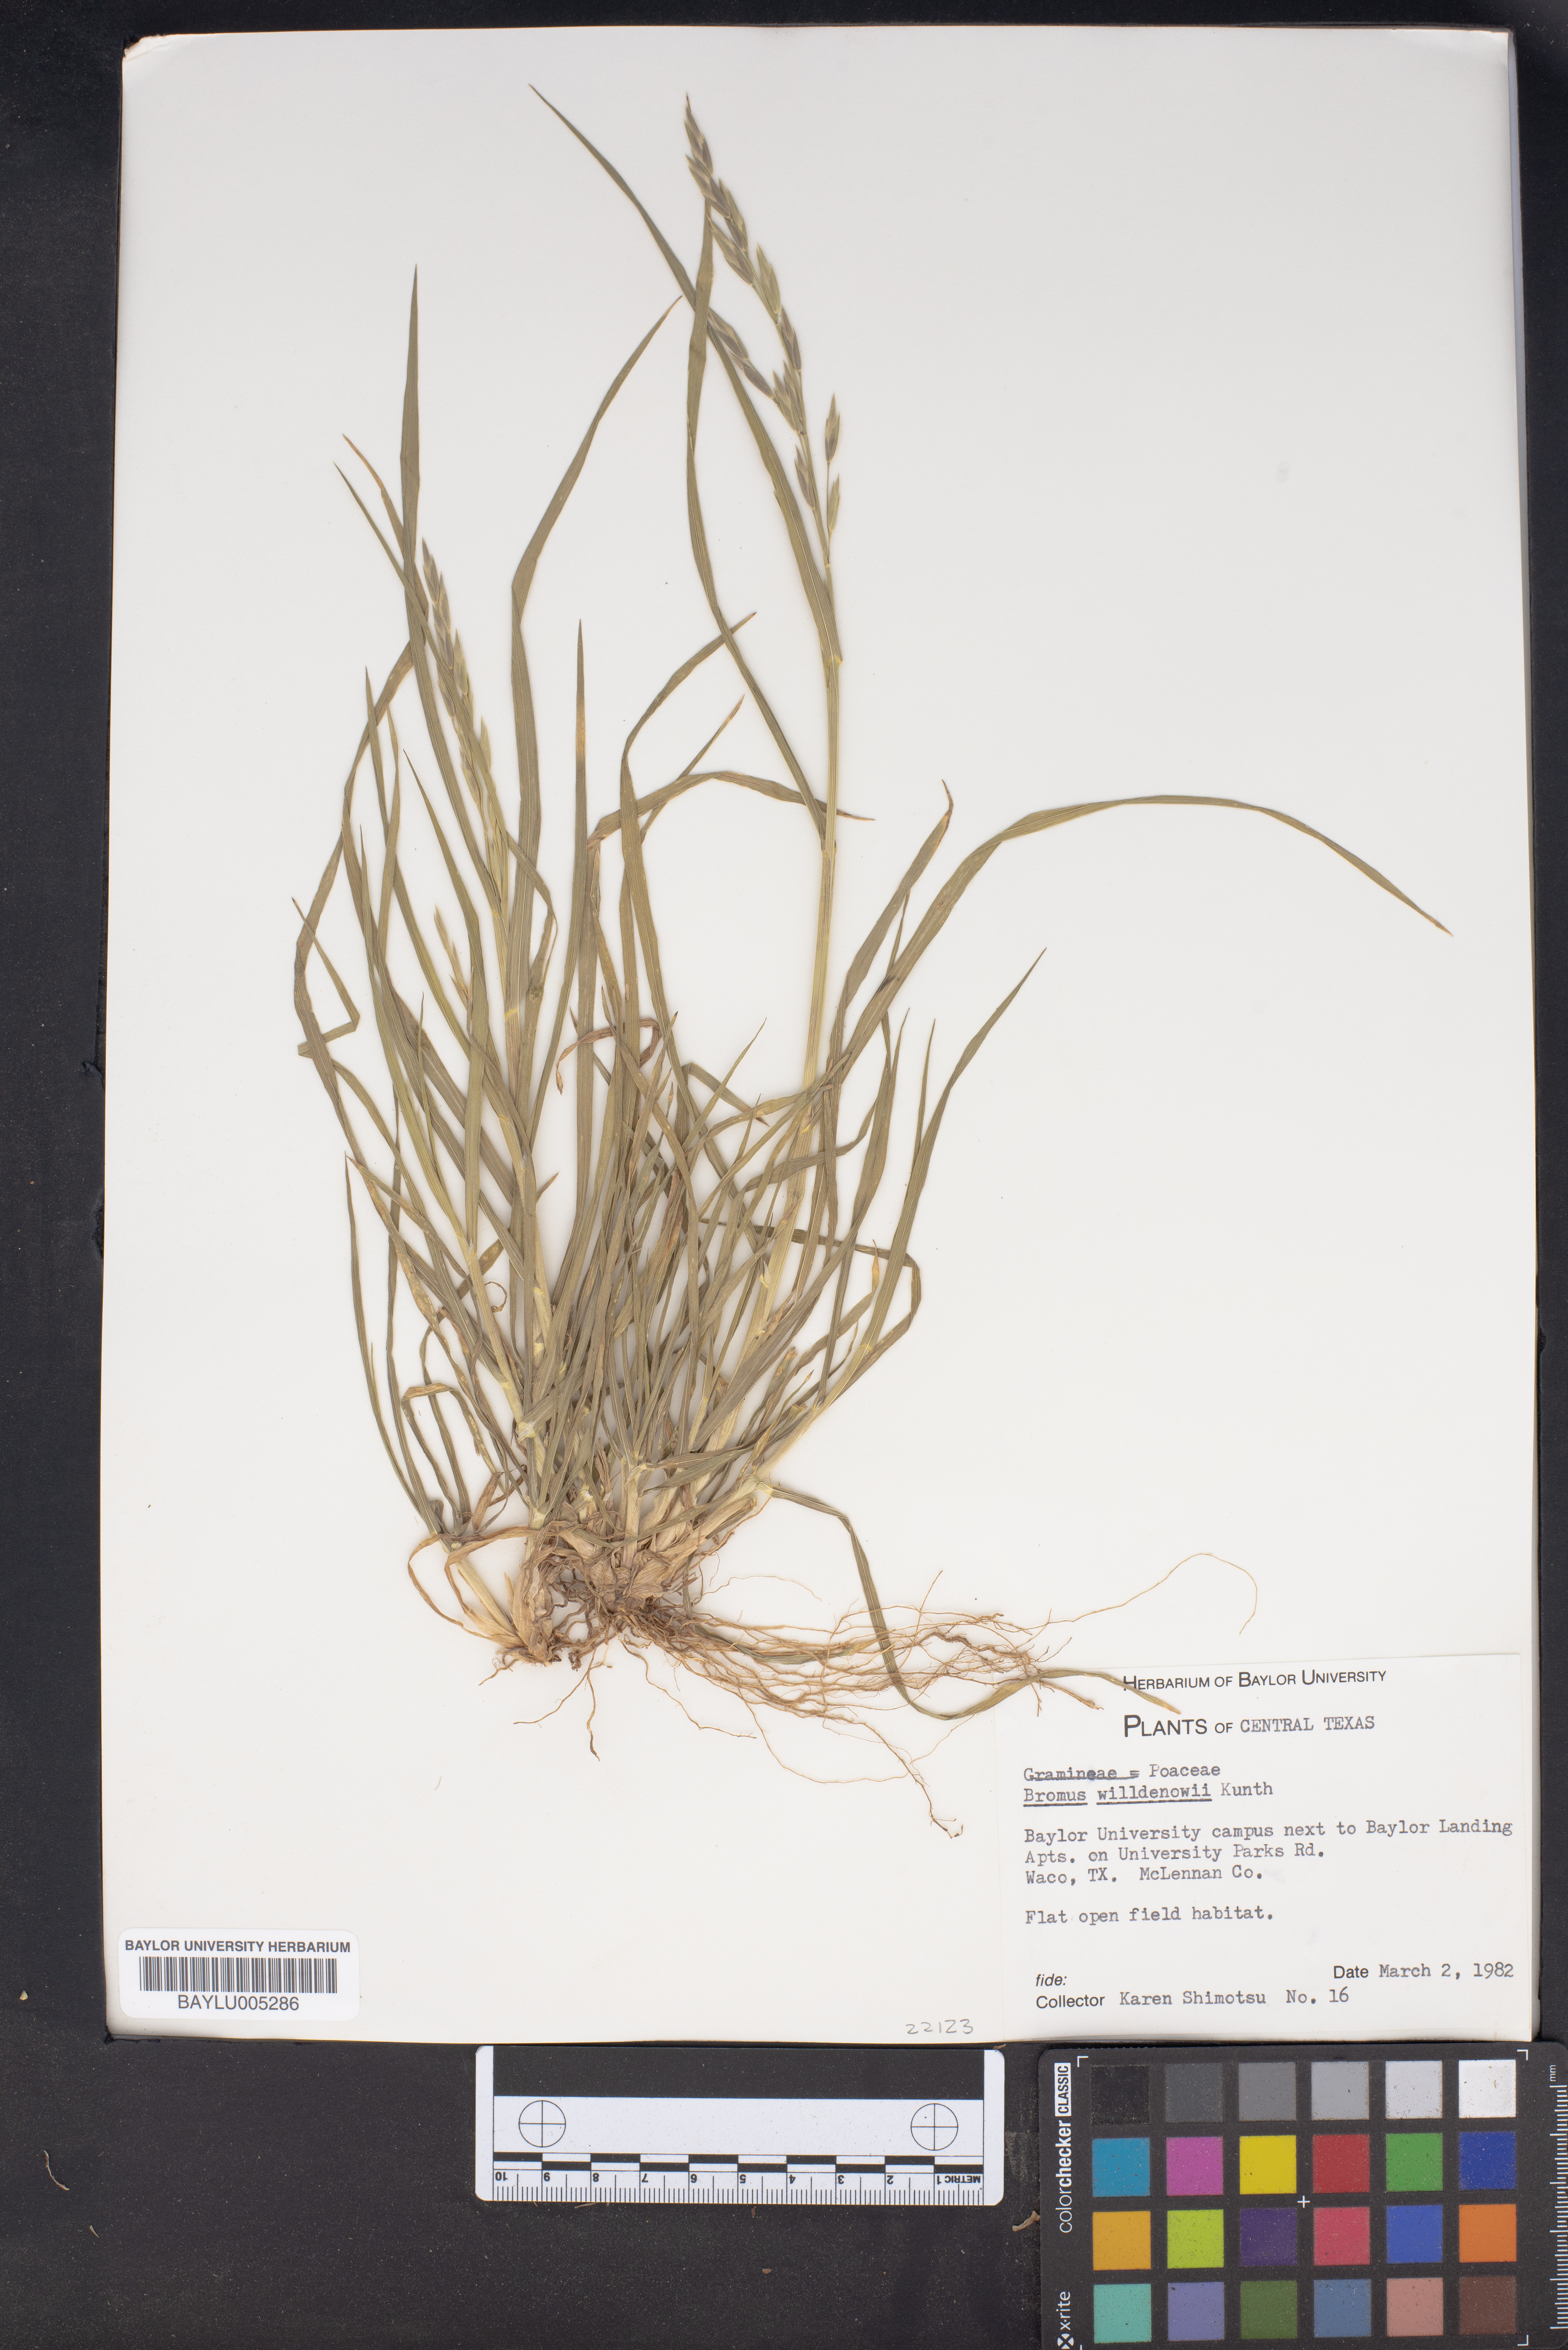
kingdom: Plantae
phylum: Tracheophyta
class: Liliopsida
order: Poales
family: Poaceae
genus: Bromus
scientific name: Bromus catharticus
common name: Rescuegrass
